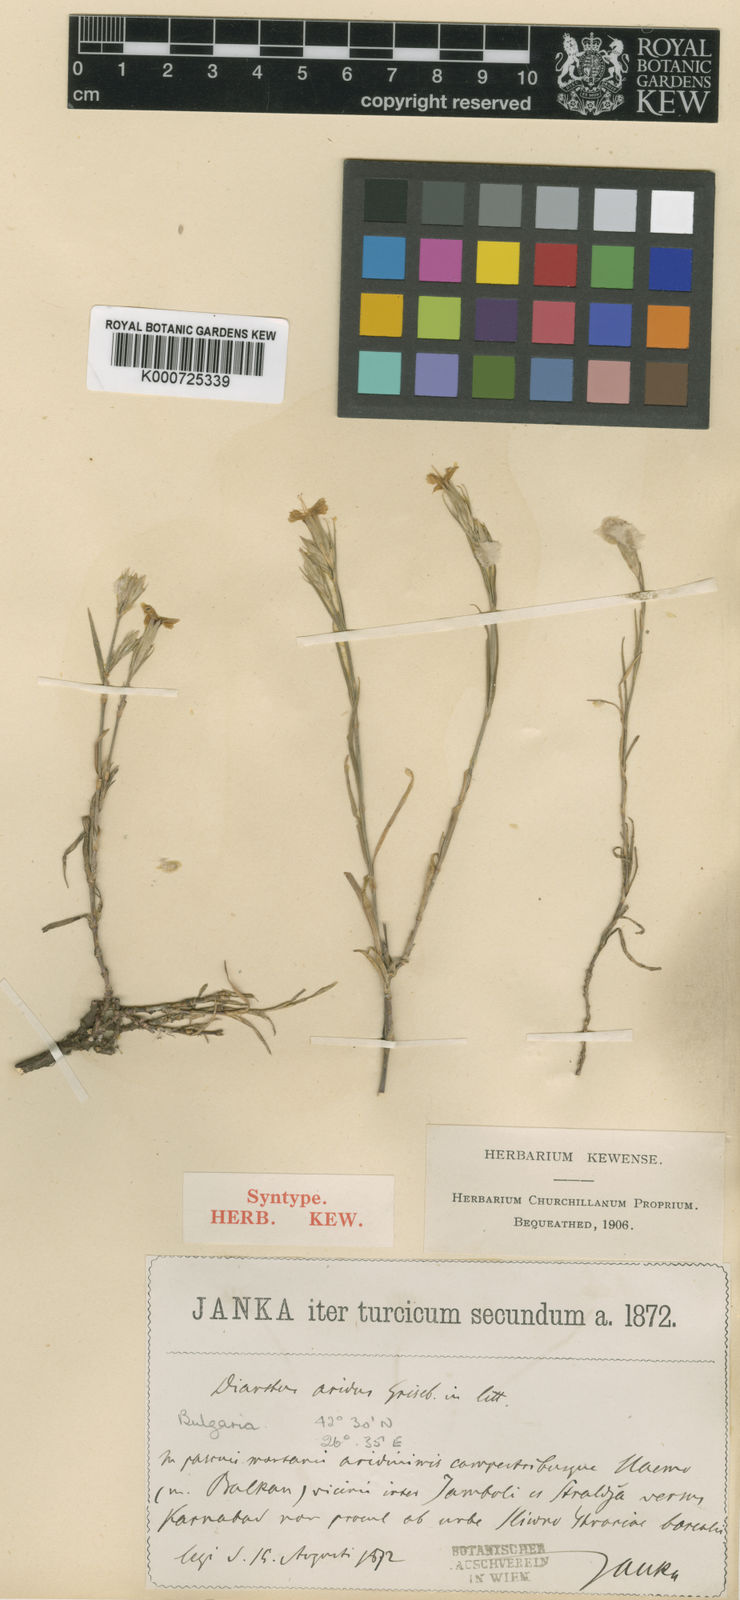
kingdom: Plantae
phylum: Tracheophyta
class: Magnoliopsida
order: Caryophyllales
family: Caryophyllaceae
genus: Dianthus
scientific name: Dianthus pallens
